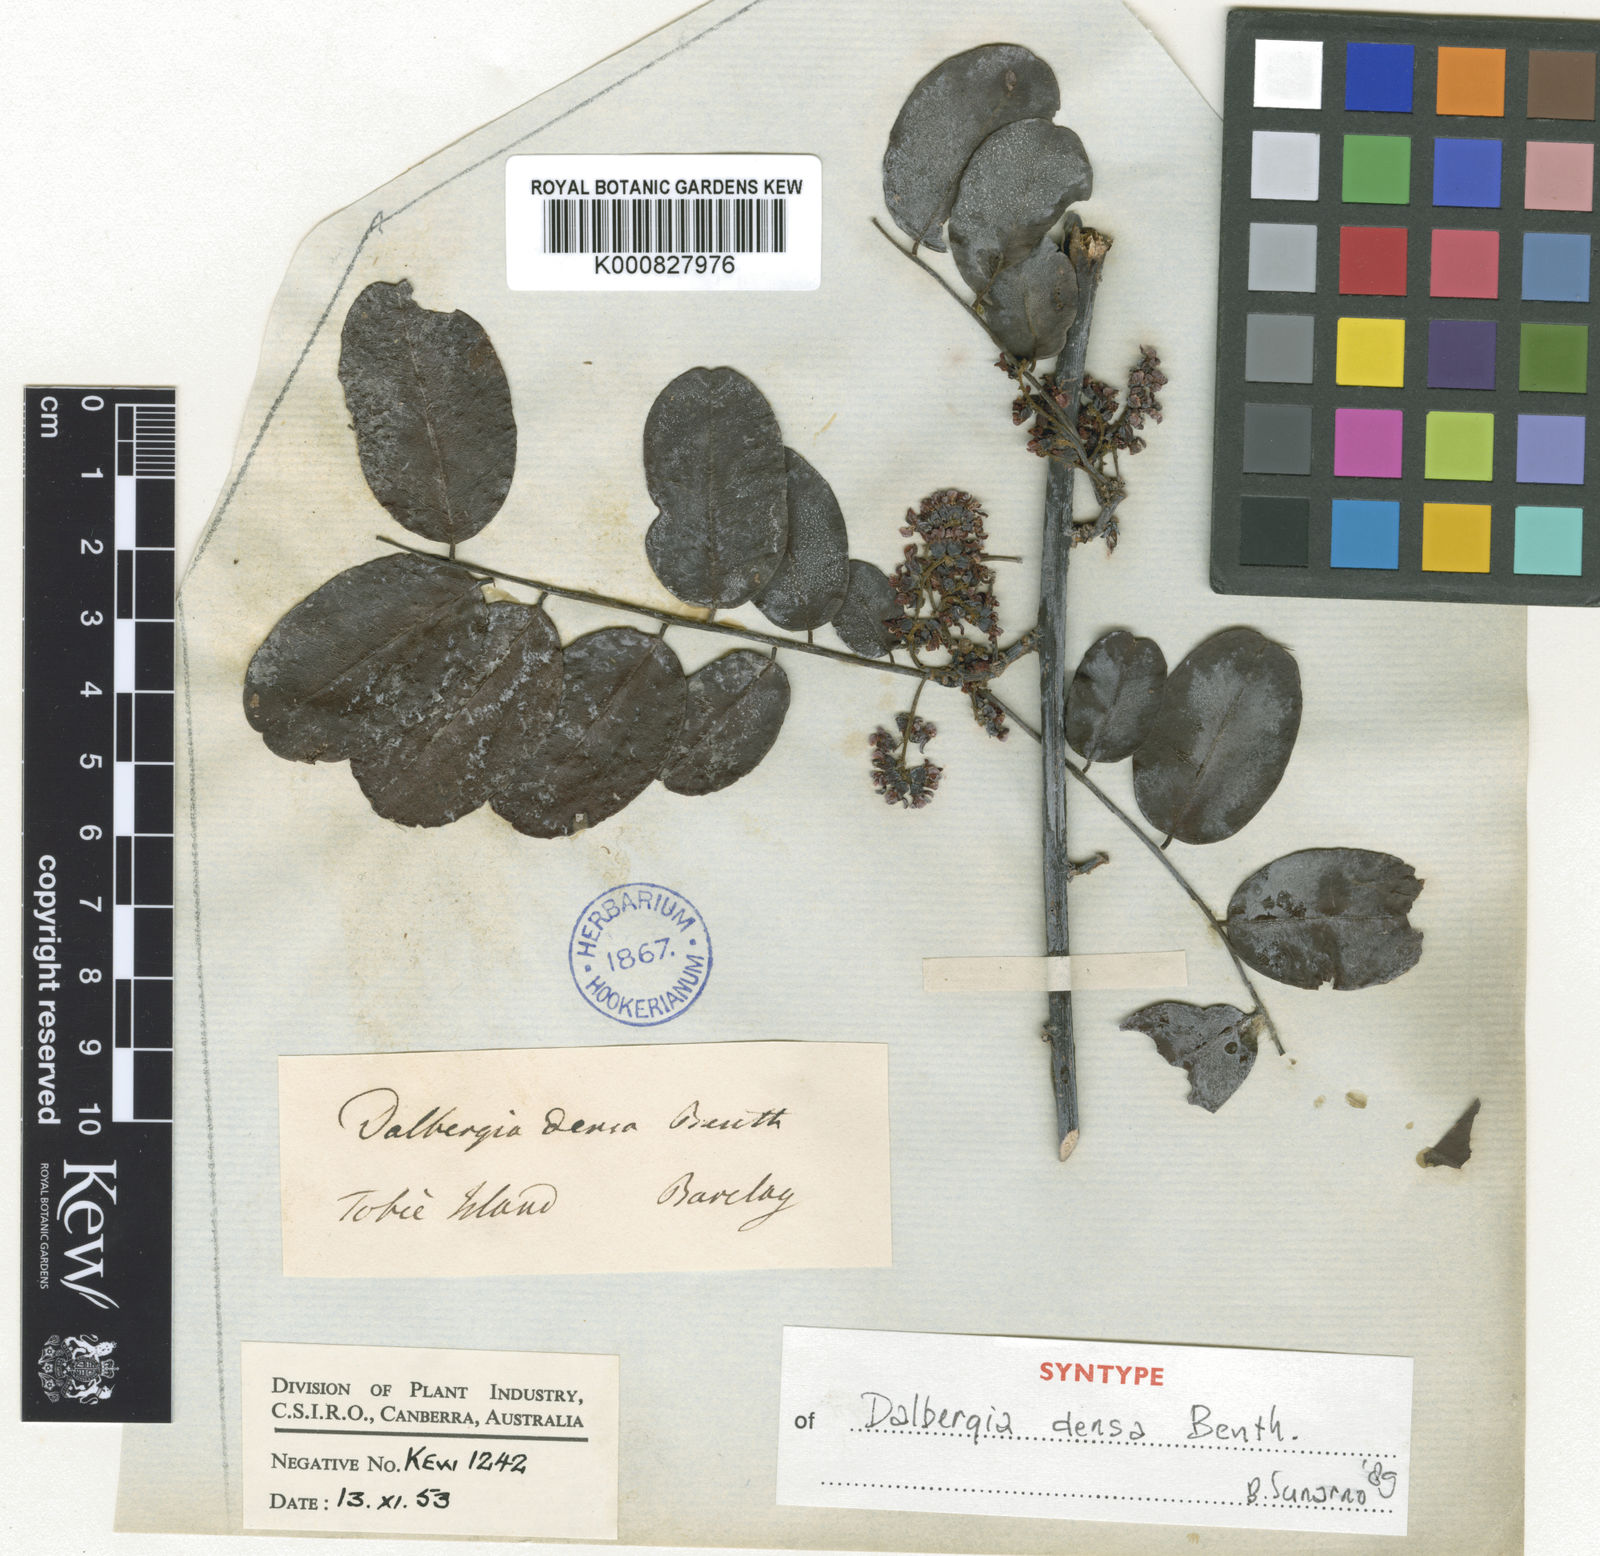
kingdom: Plantae
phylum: Tracheophyta
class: Magnoliopsida
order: Fabales
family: Fabaceae
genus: Dalbergia
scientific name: Dalbergia densa
